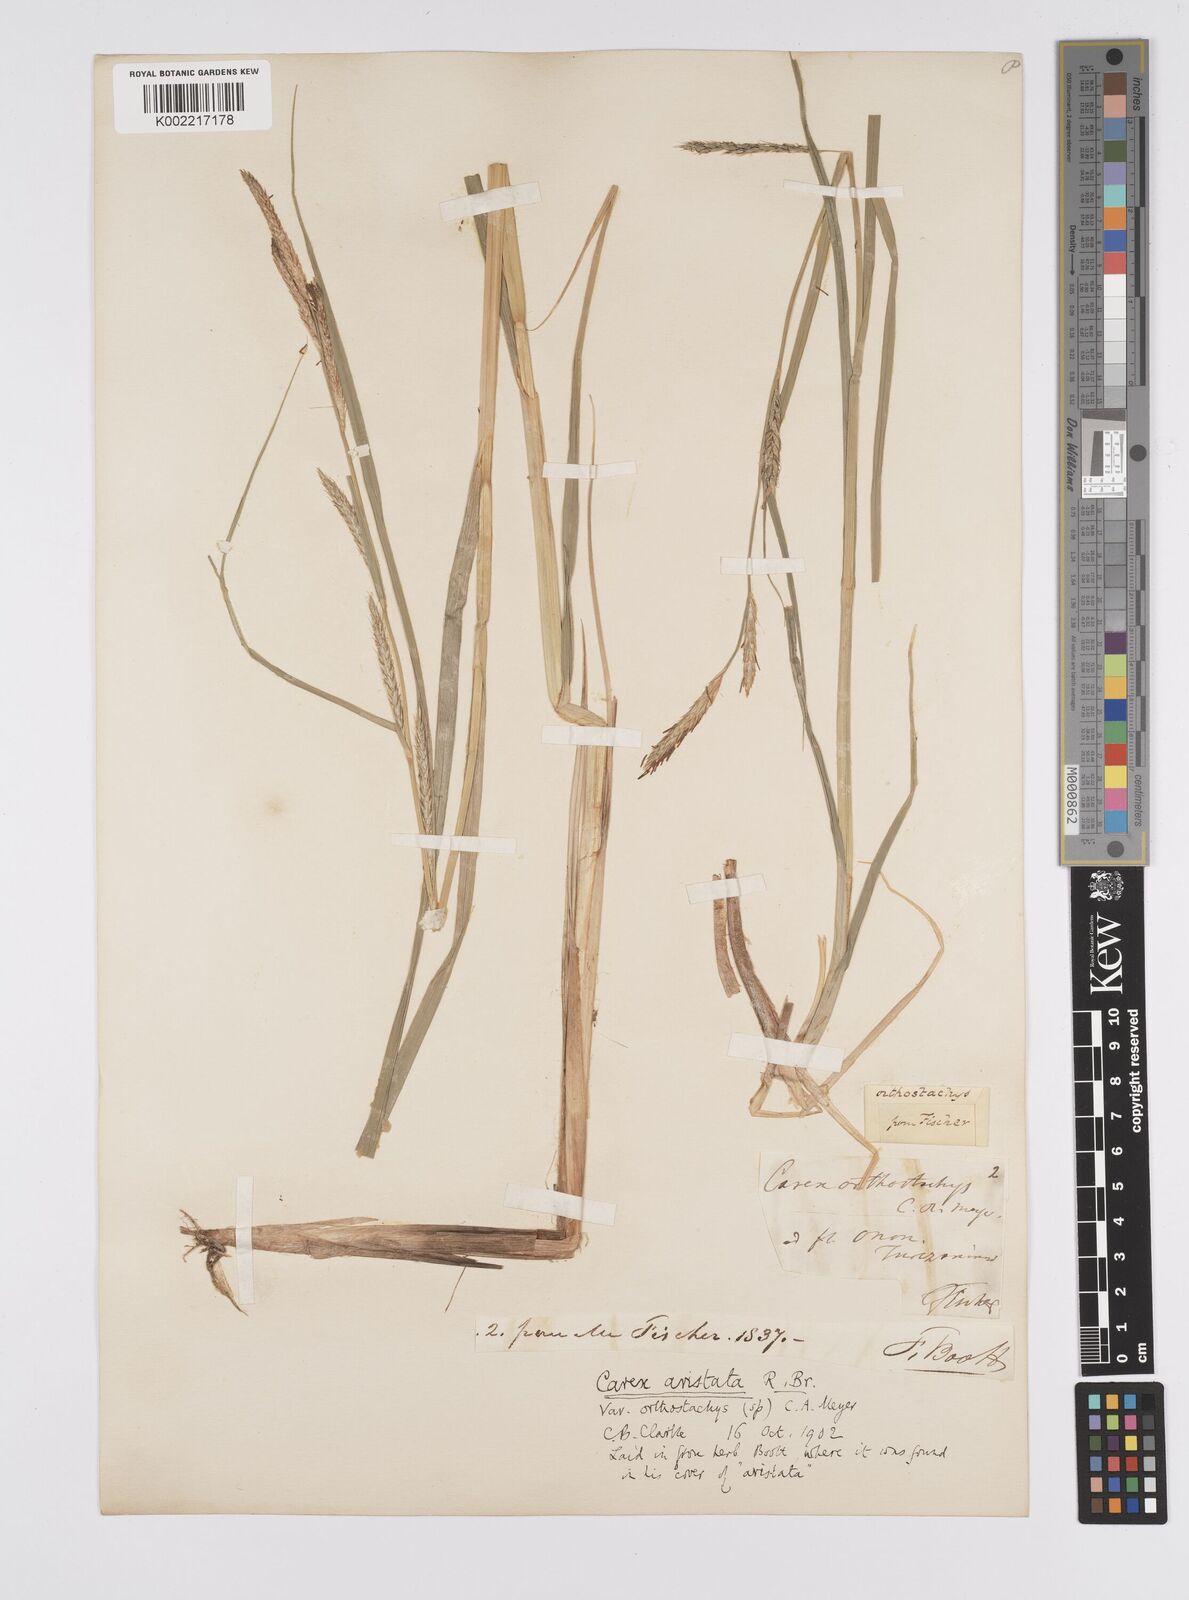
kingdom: Plantae
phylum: Tracheophyta
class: Liliopsida
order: Poales
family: Cyperaceae
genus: Carex
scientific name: Carex praecox
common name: Early sedge
